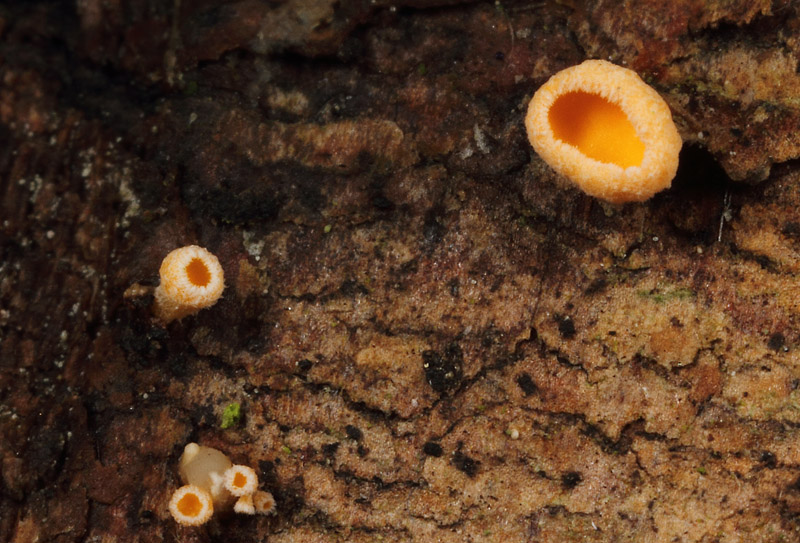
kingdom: Fungi
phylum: Ascomycota
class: Leotiomycetes
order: Helotiales
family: Lachnaceae
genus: Lachnellula
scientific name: Lachnellula calyciformis
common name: ædelgran-frynseskive
